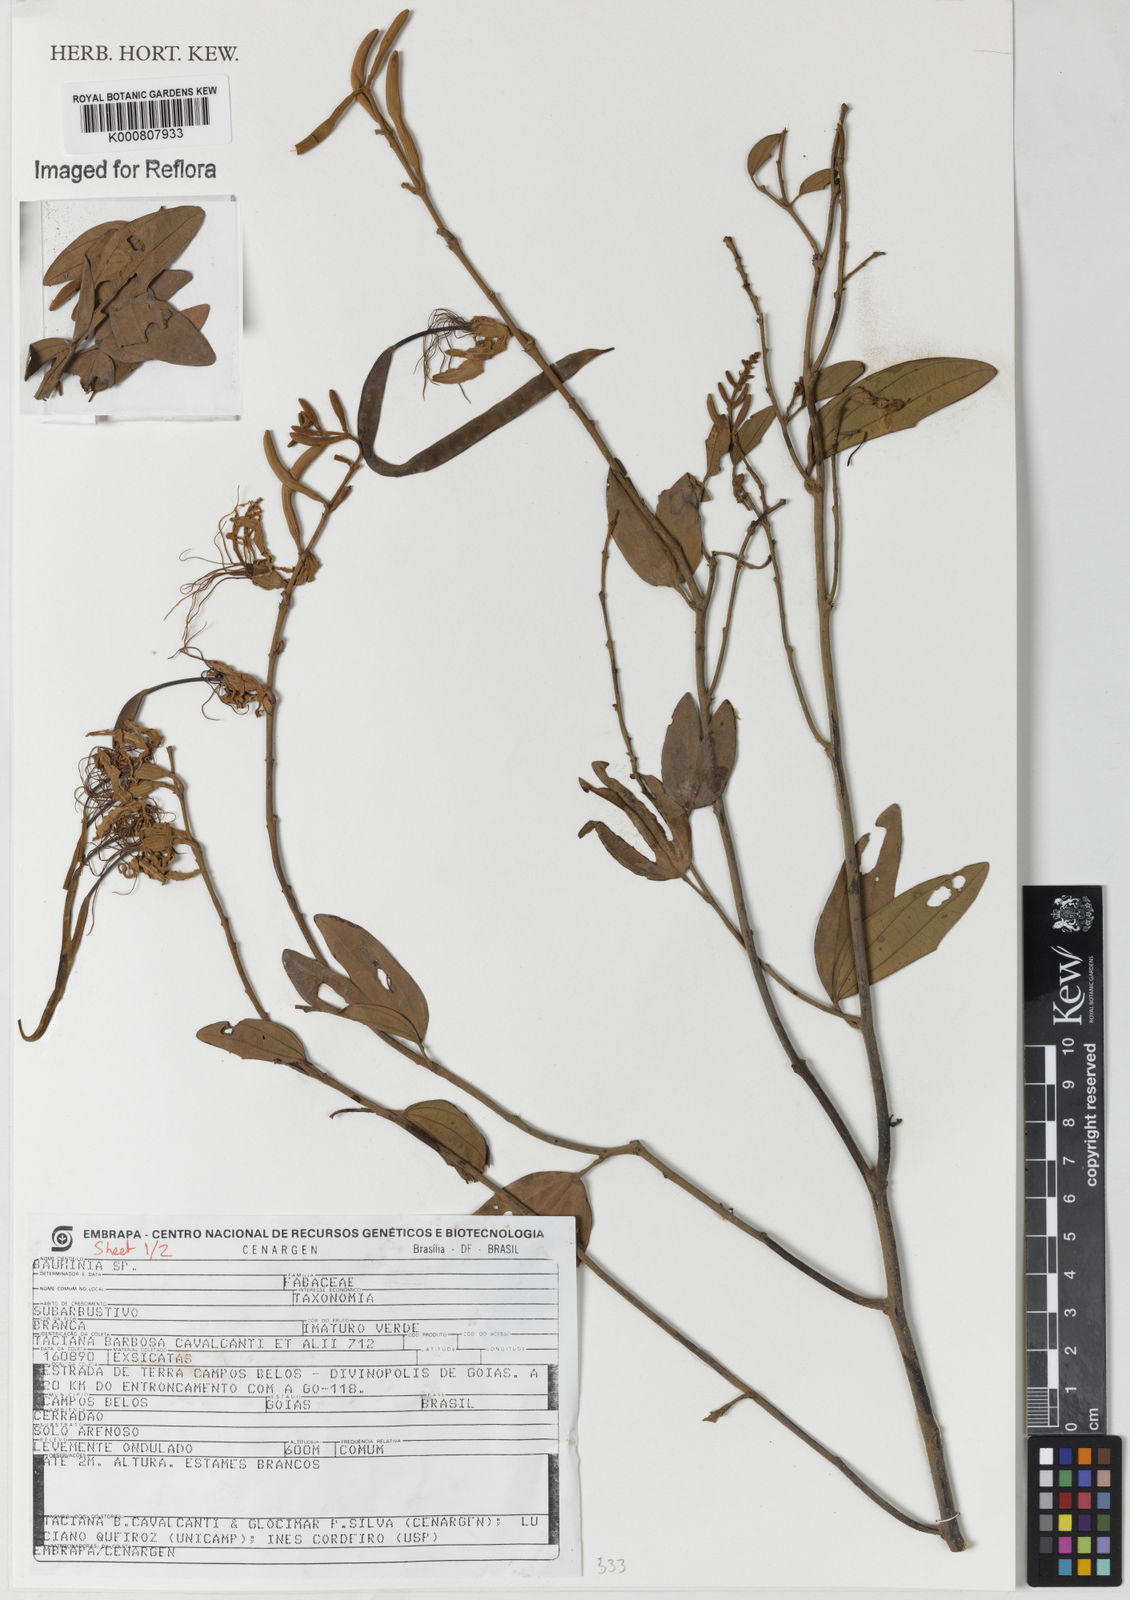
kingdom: Plantae
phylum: Tracheophyta
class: Magnoliopsida
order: Fabales
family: Fabaceae
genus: Bauhinia
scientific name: Bauhinia
